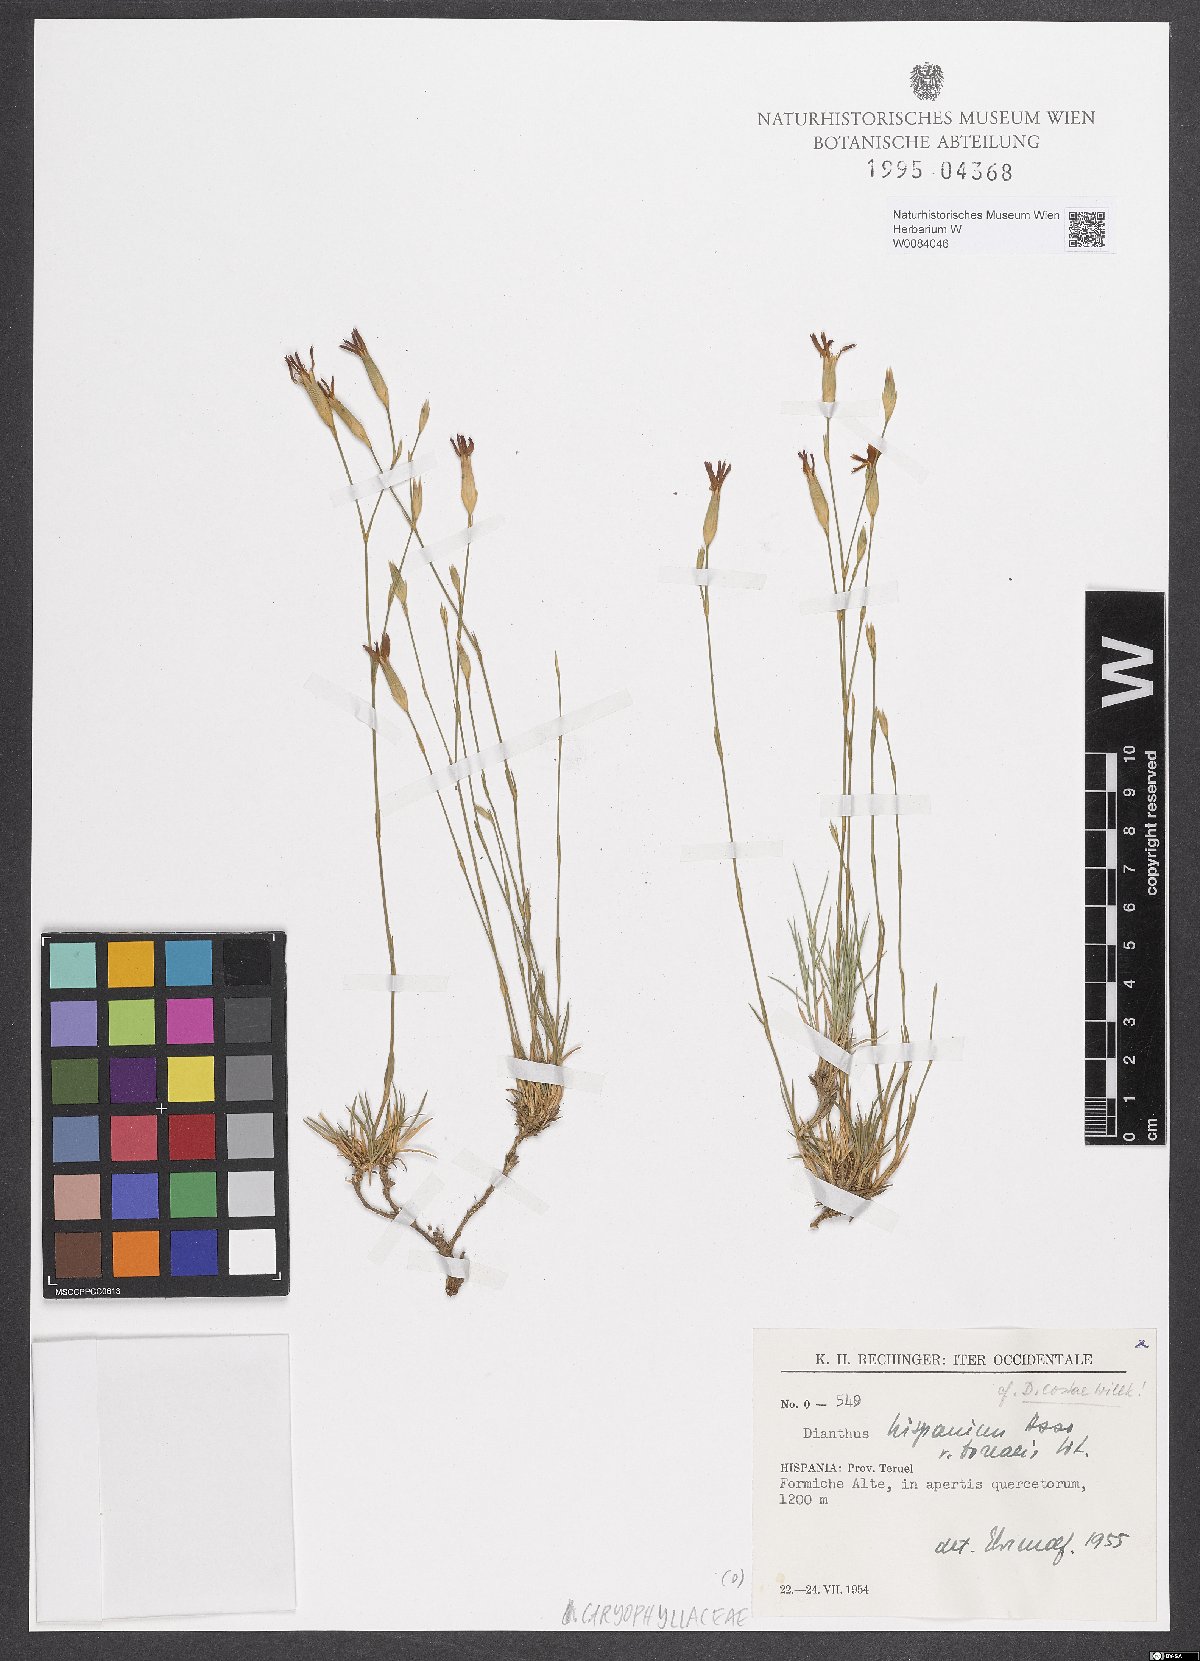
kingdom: Plantae
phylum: Tracheophyta
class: Magnoliopsida
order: Caryophyllales
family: Caryophyllaceae
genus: Dianthus
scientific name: Dianthus pungens
